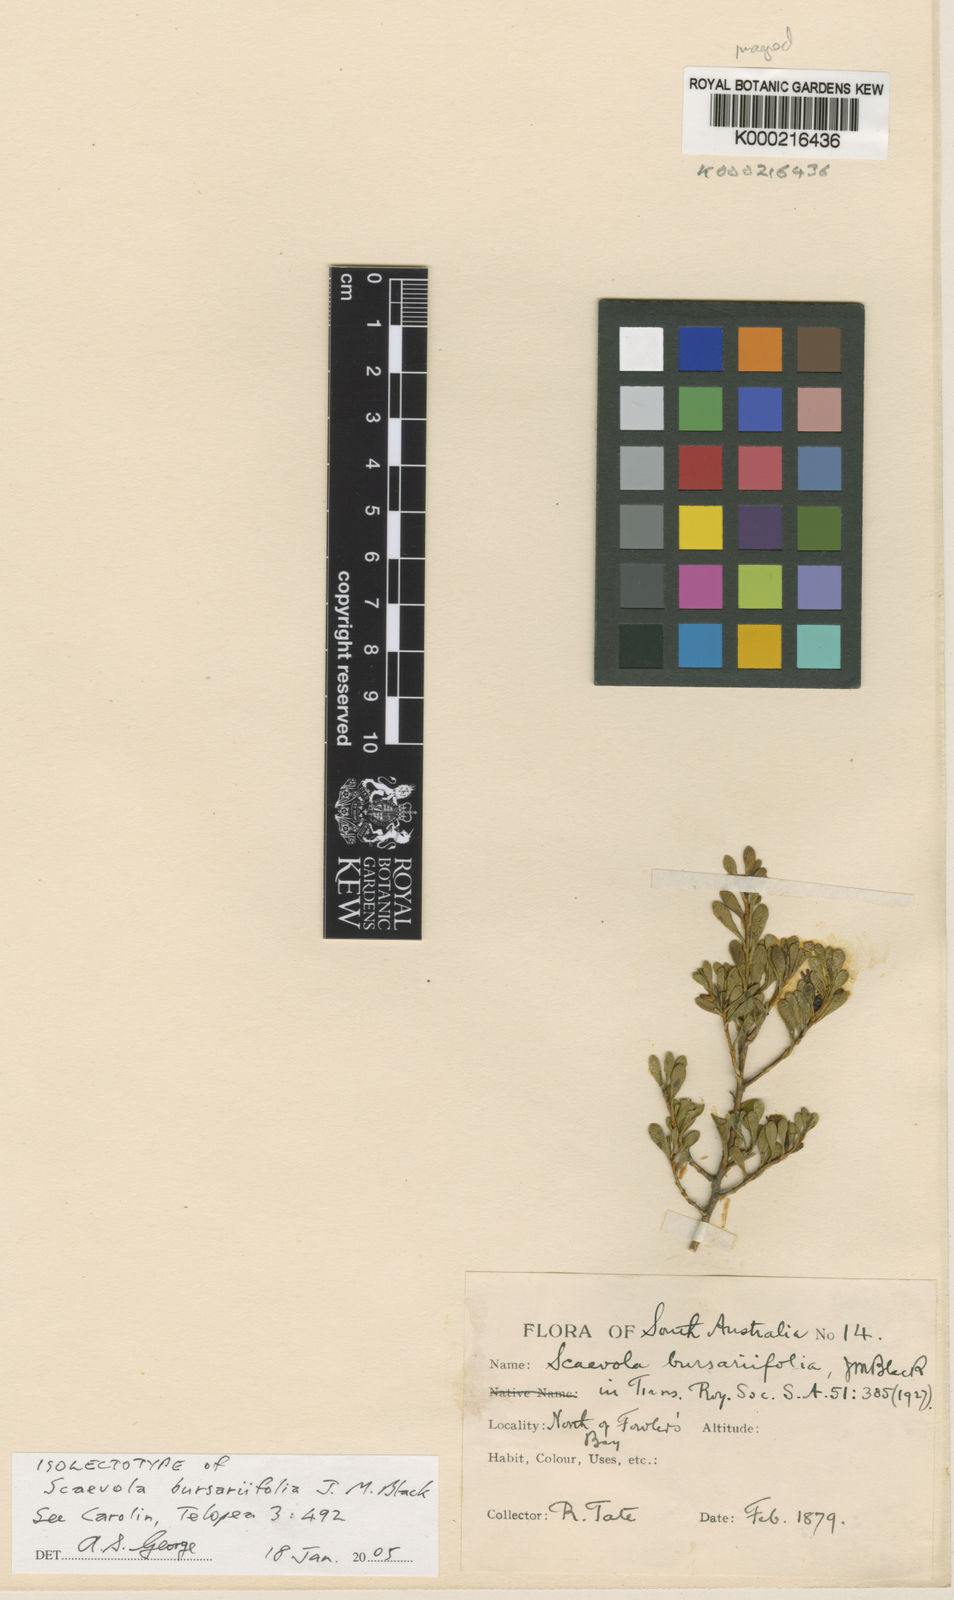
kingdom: Plantae
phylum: Tracheophyta
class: Magnoliopsida
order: Asterales
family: Goodeniaceae
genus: Scaevola
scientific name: Scaevola bursariifolia
